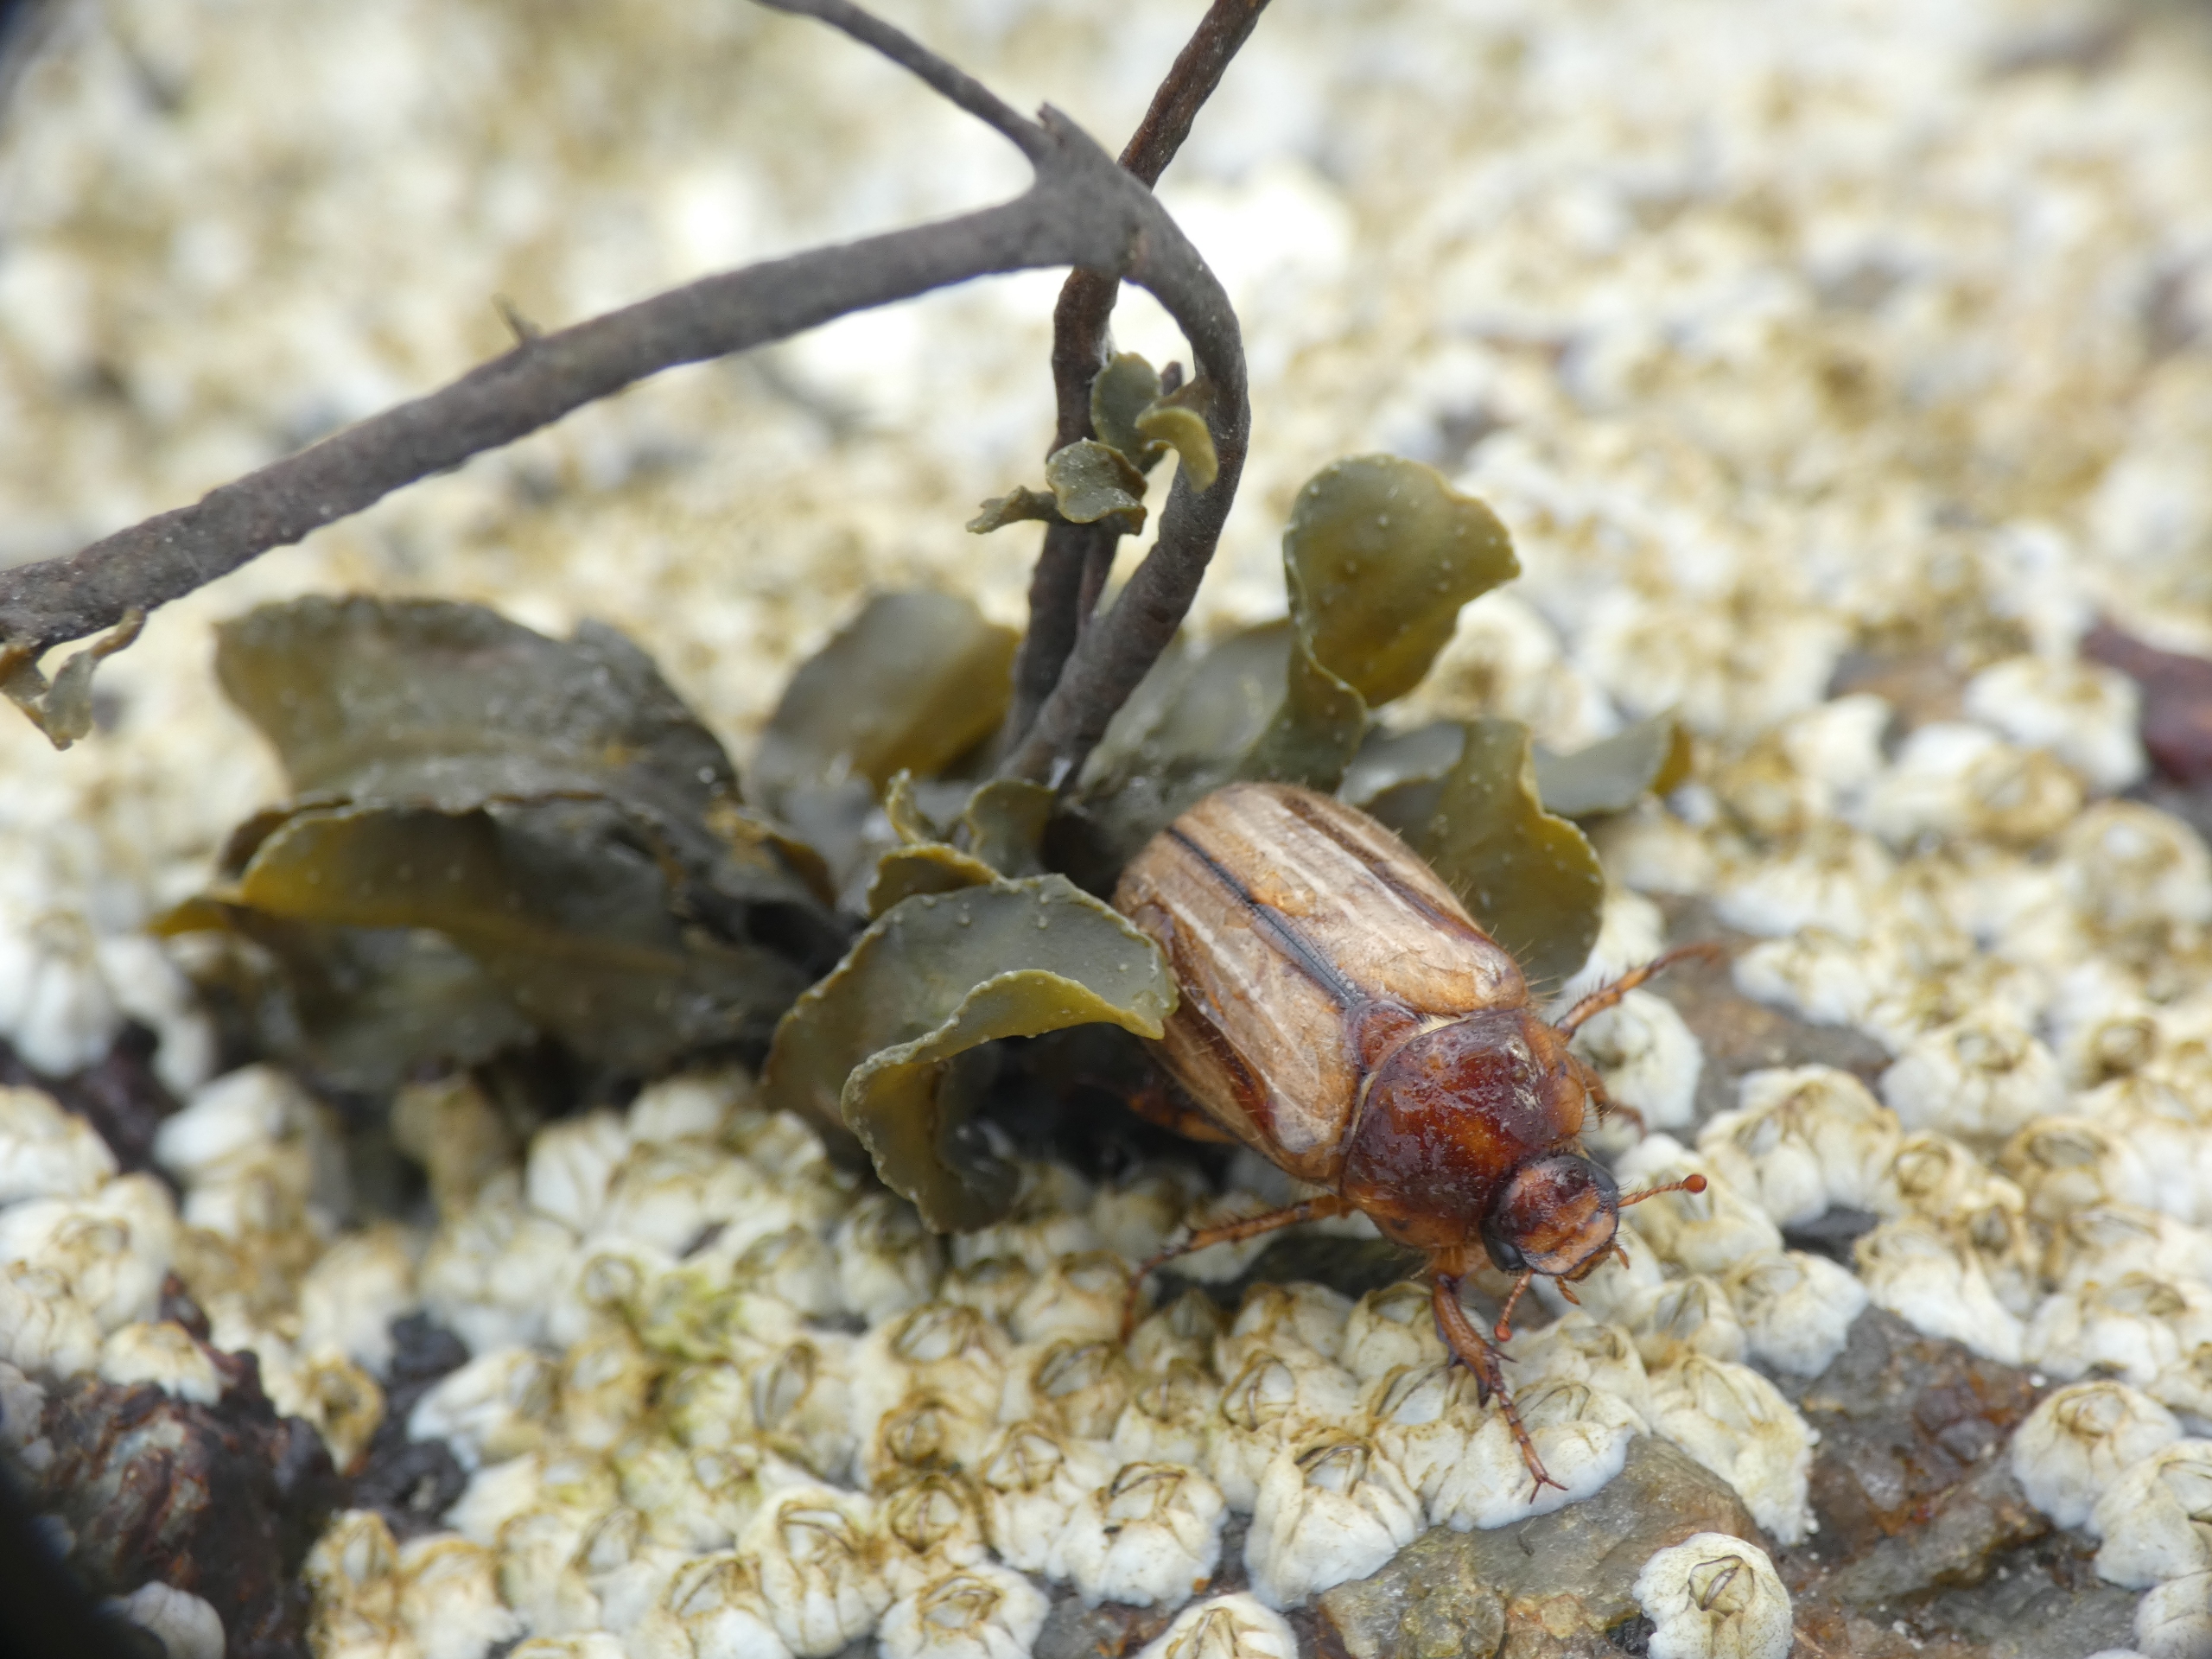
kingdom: Animalia
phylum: Arthropoda
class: Insecta
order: Coleoptera
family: Scarabaeidae
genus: Amphimallon
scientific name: Amphimallon solstitiale
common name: Sankthansoldenborre
